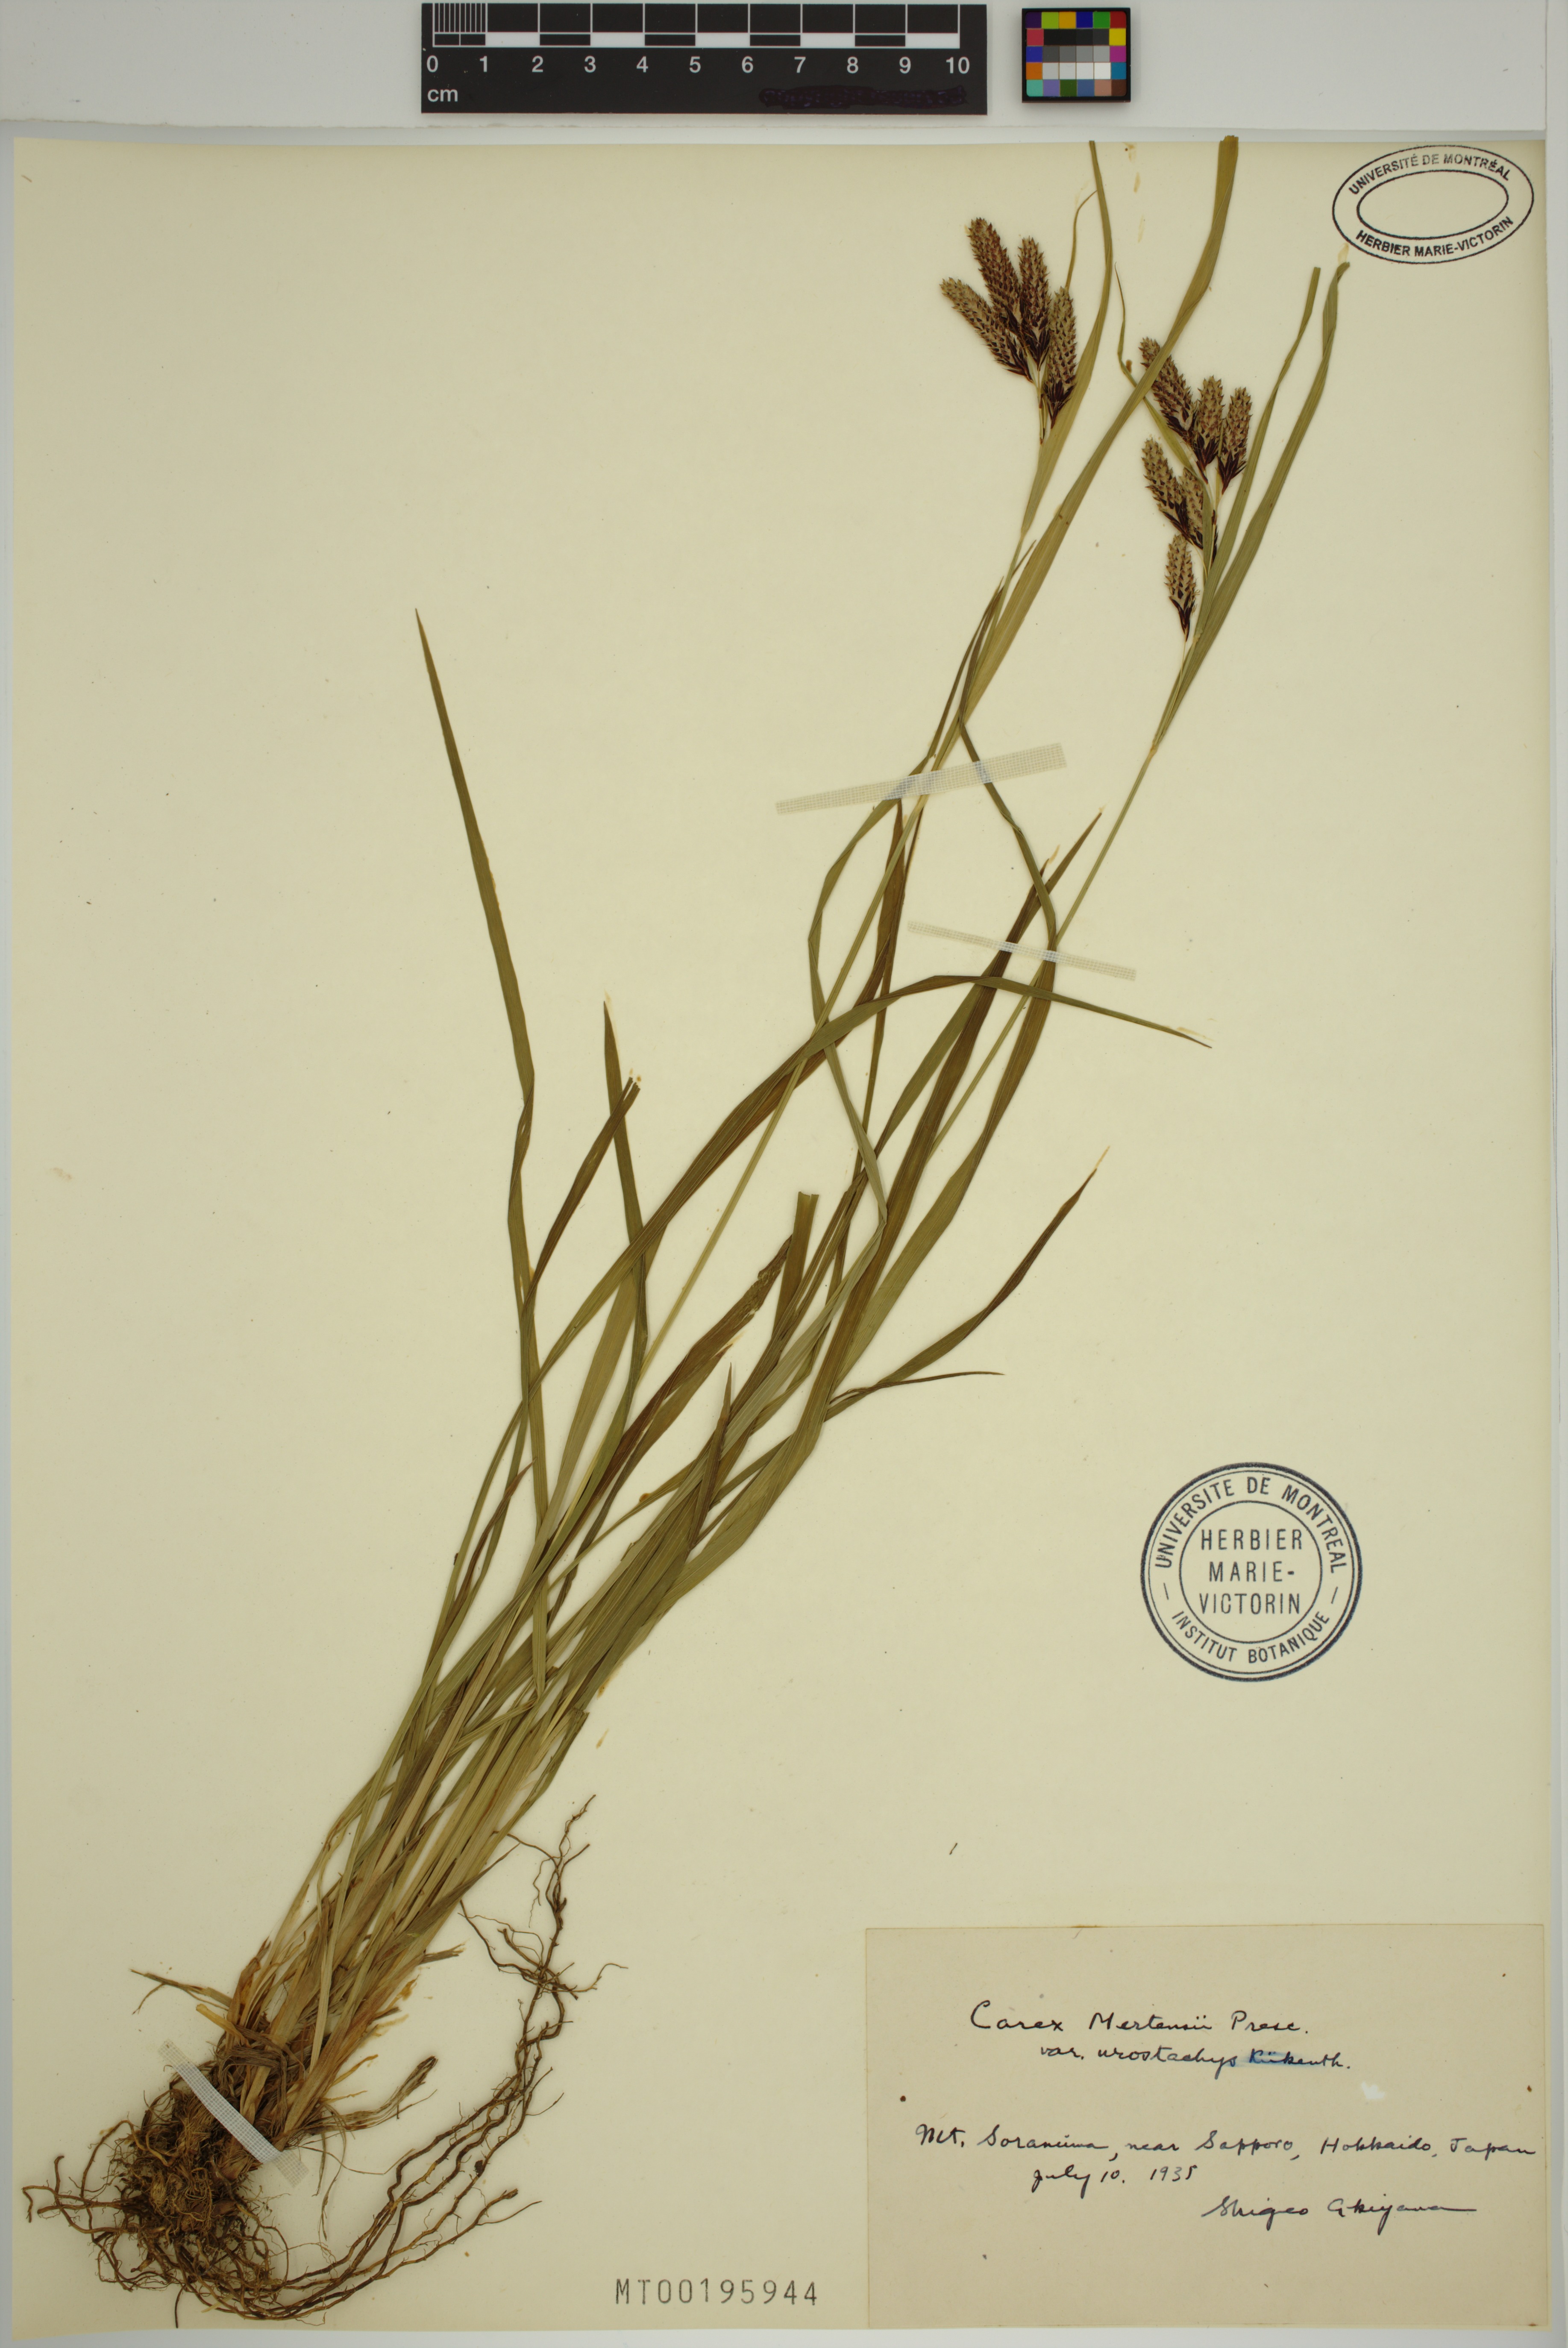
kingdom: Plantae
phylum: Tracheophyta
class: Liliopsida
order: Poales
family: Cyperaceae
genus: Carex
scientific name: Carex mertensii
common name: Mertens' sedge
